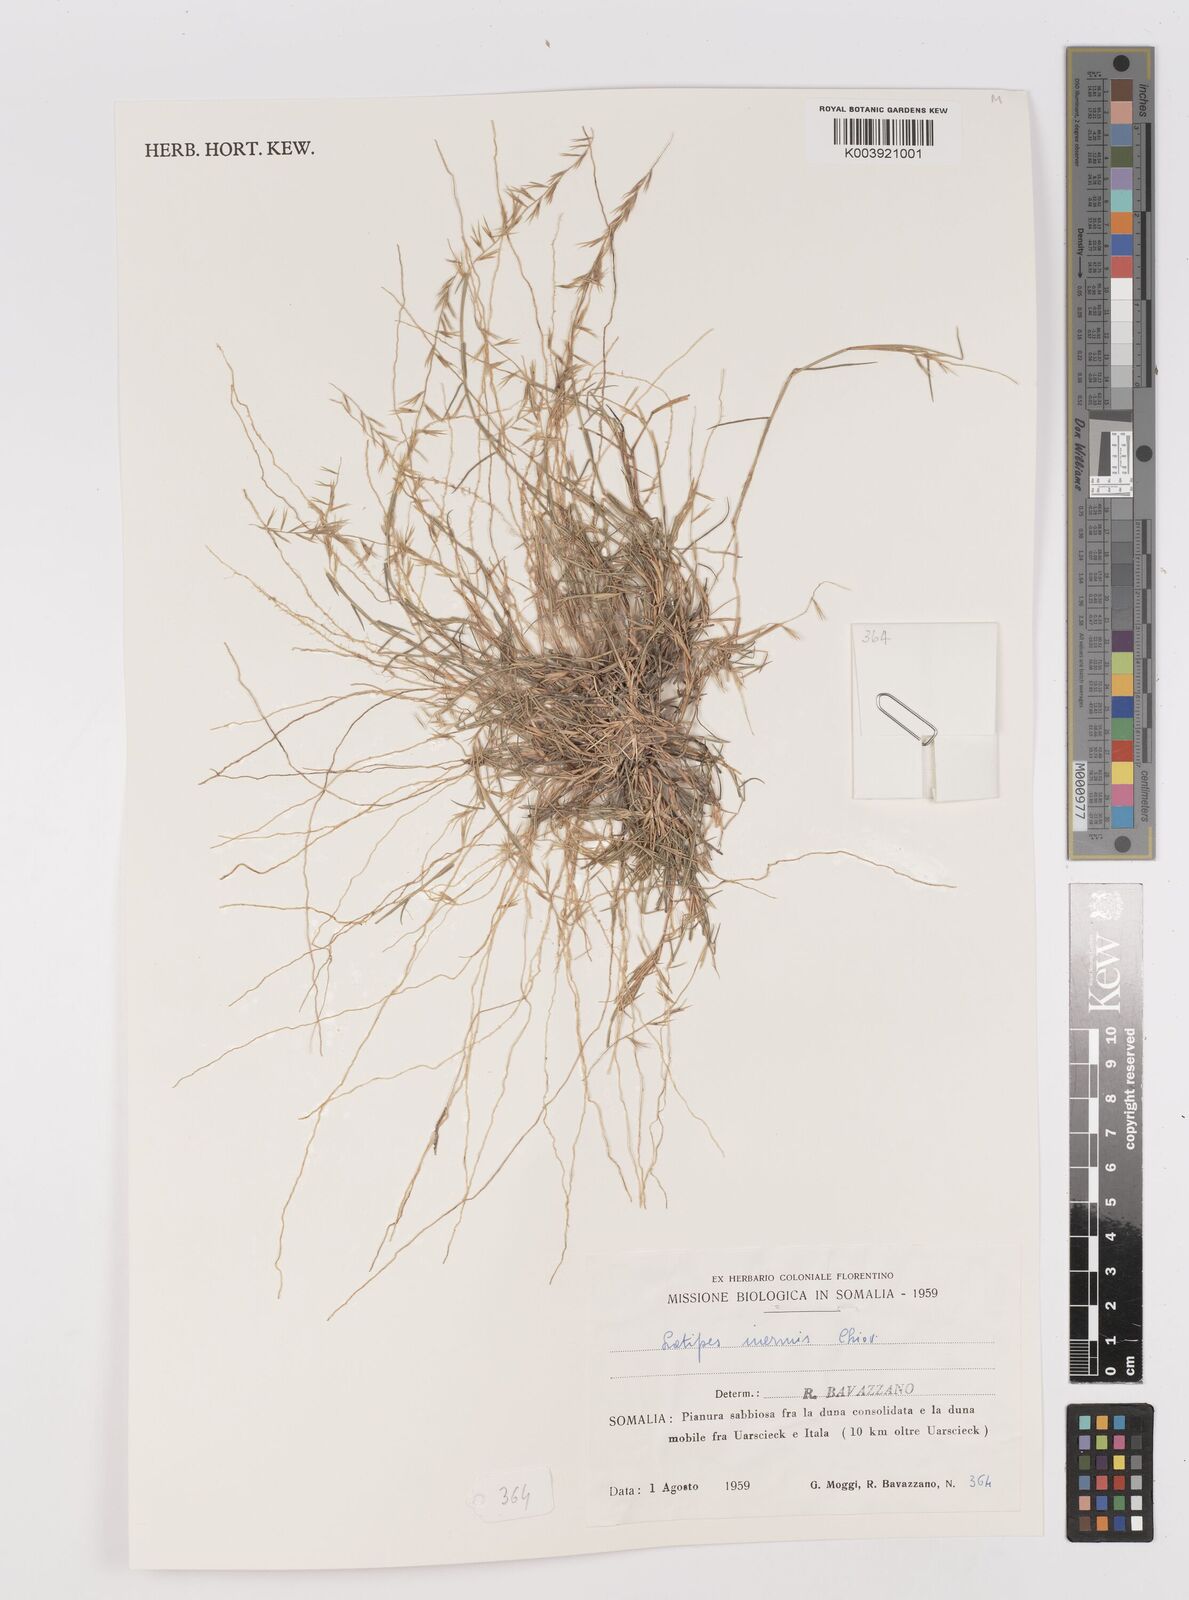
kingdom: Plantae
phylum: Tracheophyta
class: Liliopsida
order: Poales
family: Poaceae
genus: Leptothrium
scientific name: Leptothrium senegalense
